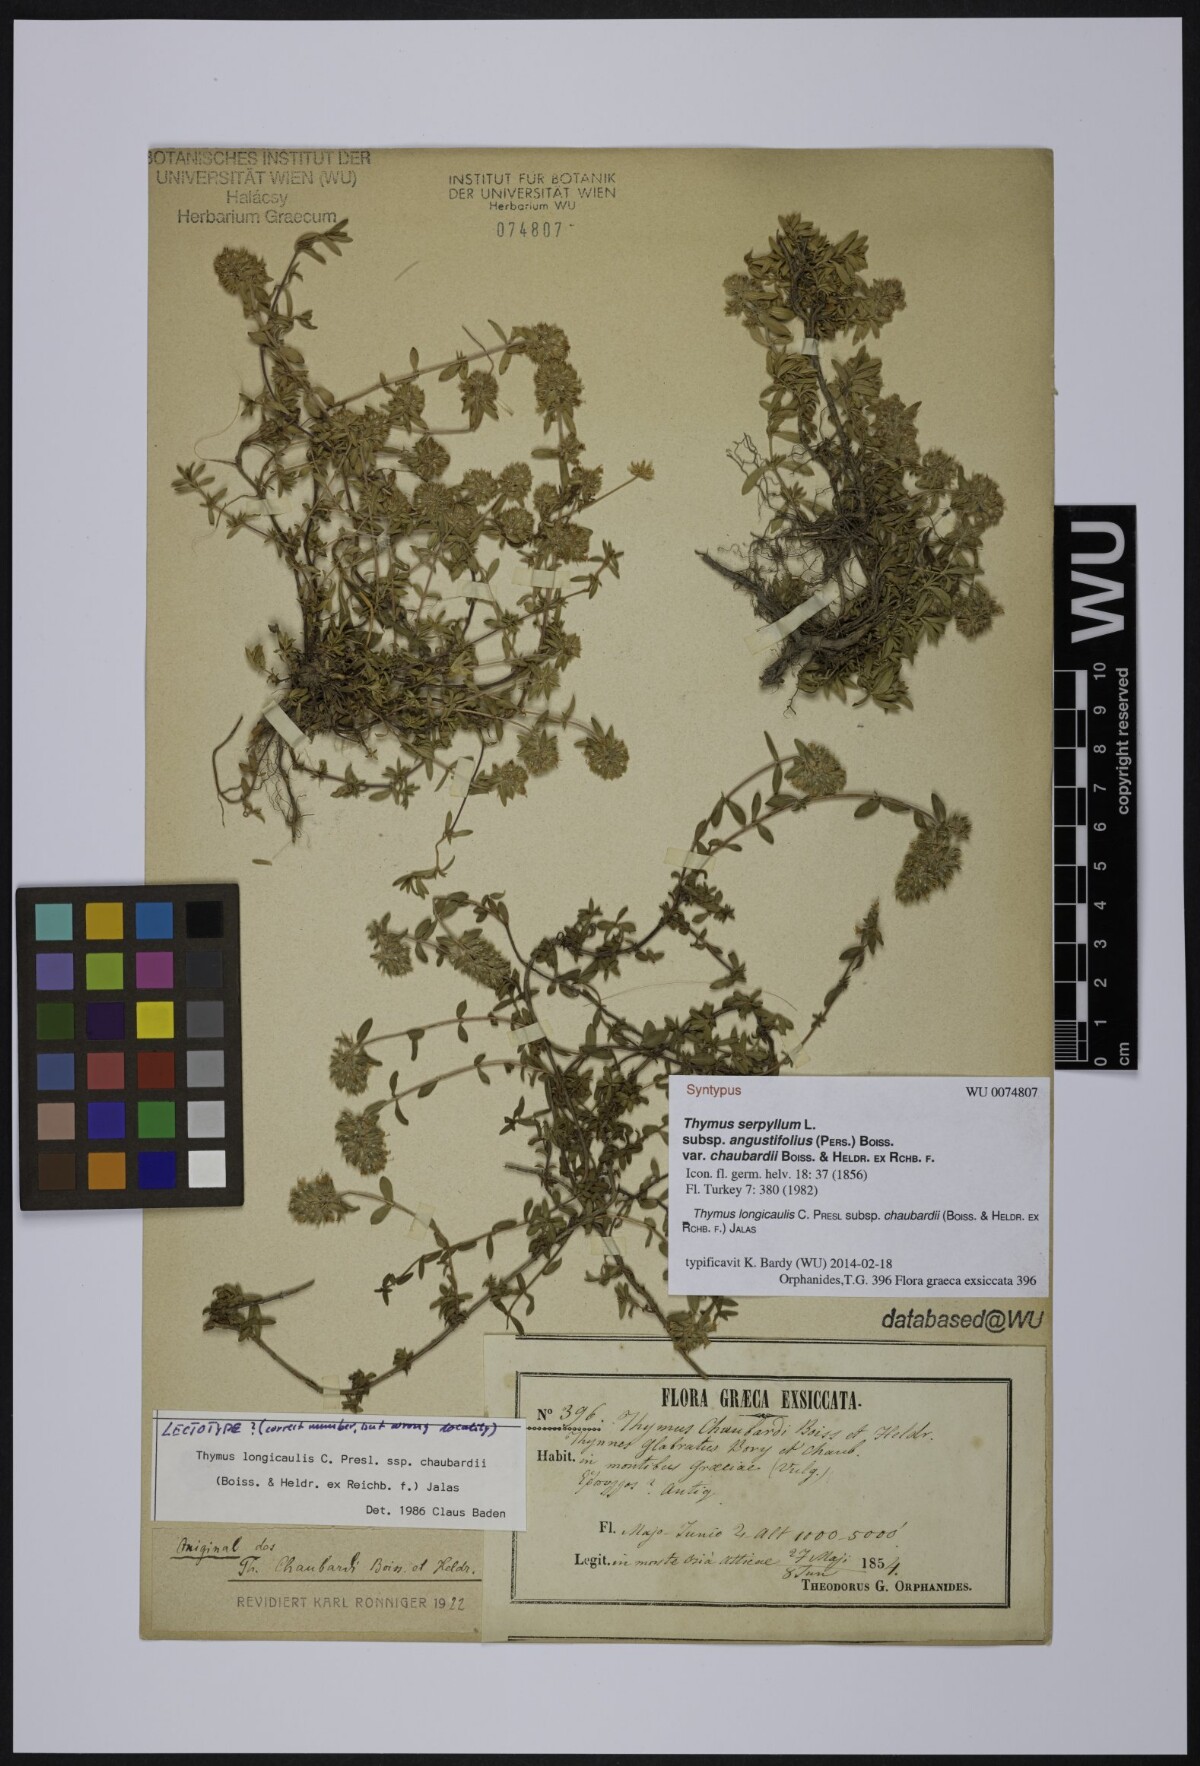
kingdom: Plantae
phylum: Tracheophyta
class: Magnoliopsida
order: Lamiales
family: Lamiaceae
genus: Thymus
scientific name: Thymus longicaulis
